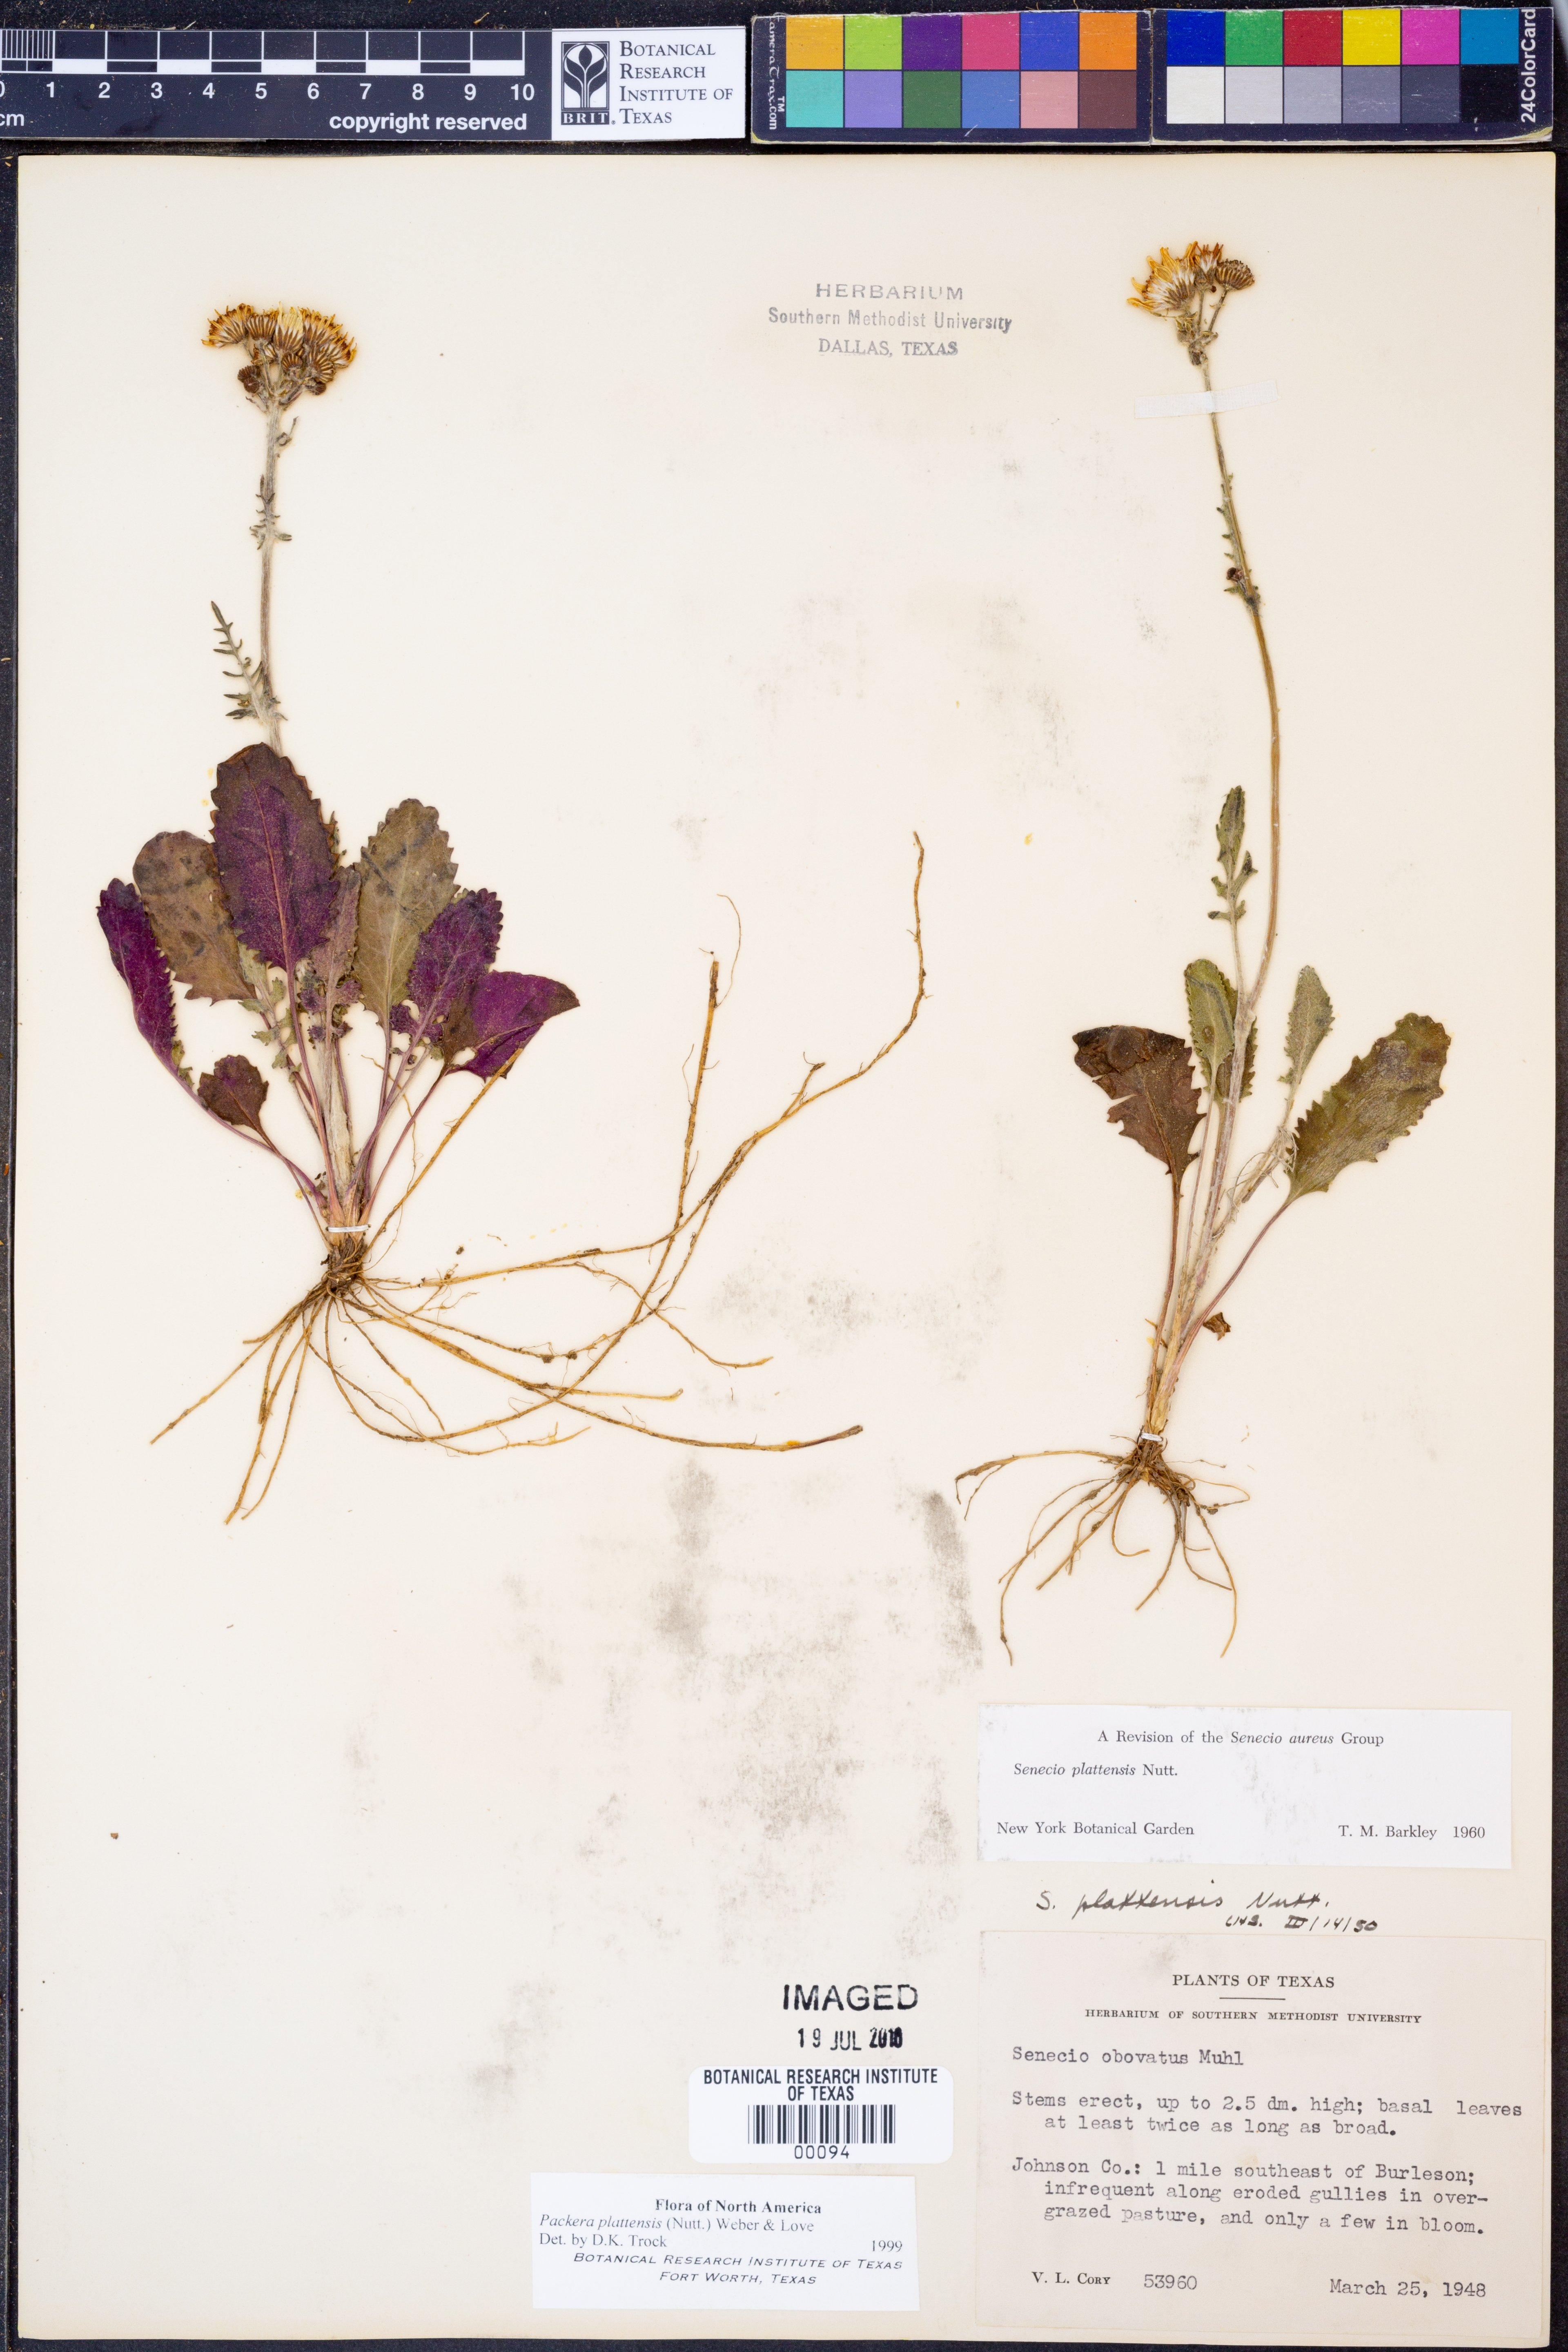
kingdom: Plantae
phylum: Tracheophyta
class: Magnoliopsida
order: Asterales
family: Asteraceae
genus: Packera
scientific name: Packera plattensis
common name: Prairie groundsel
